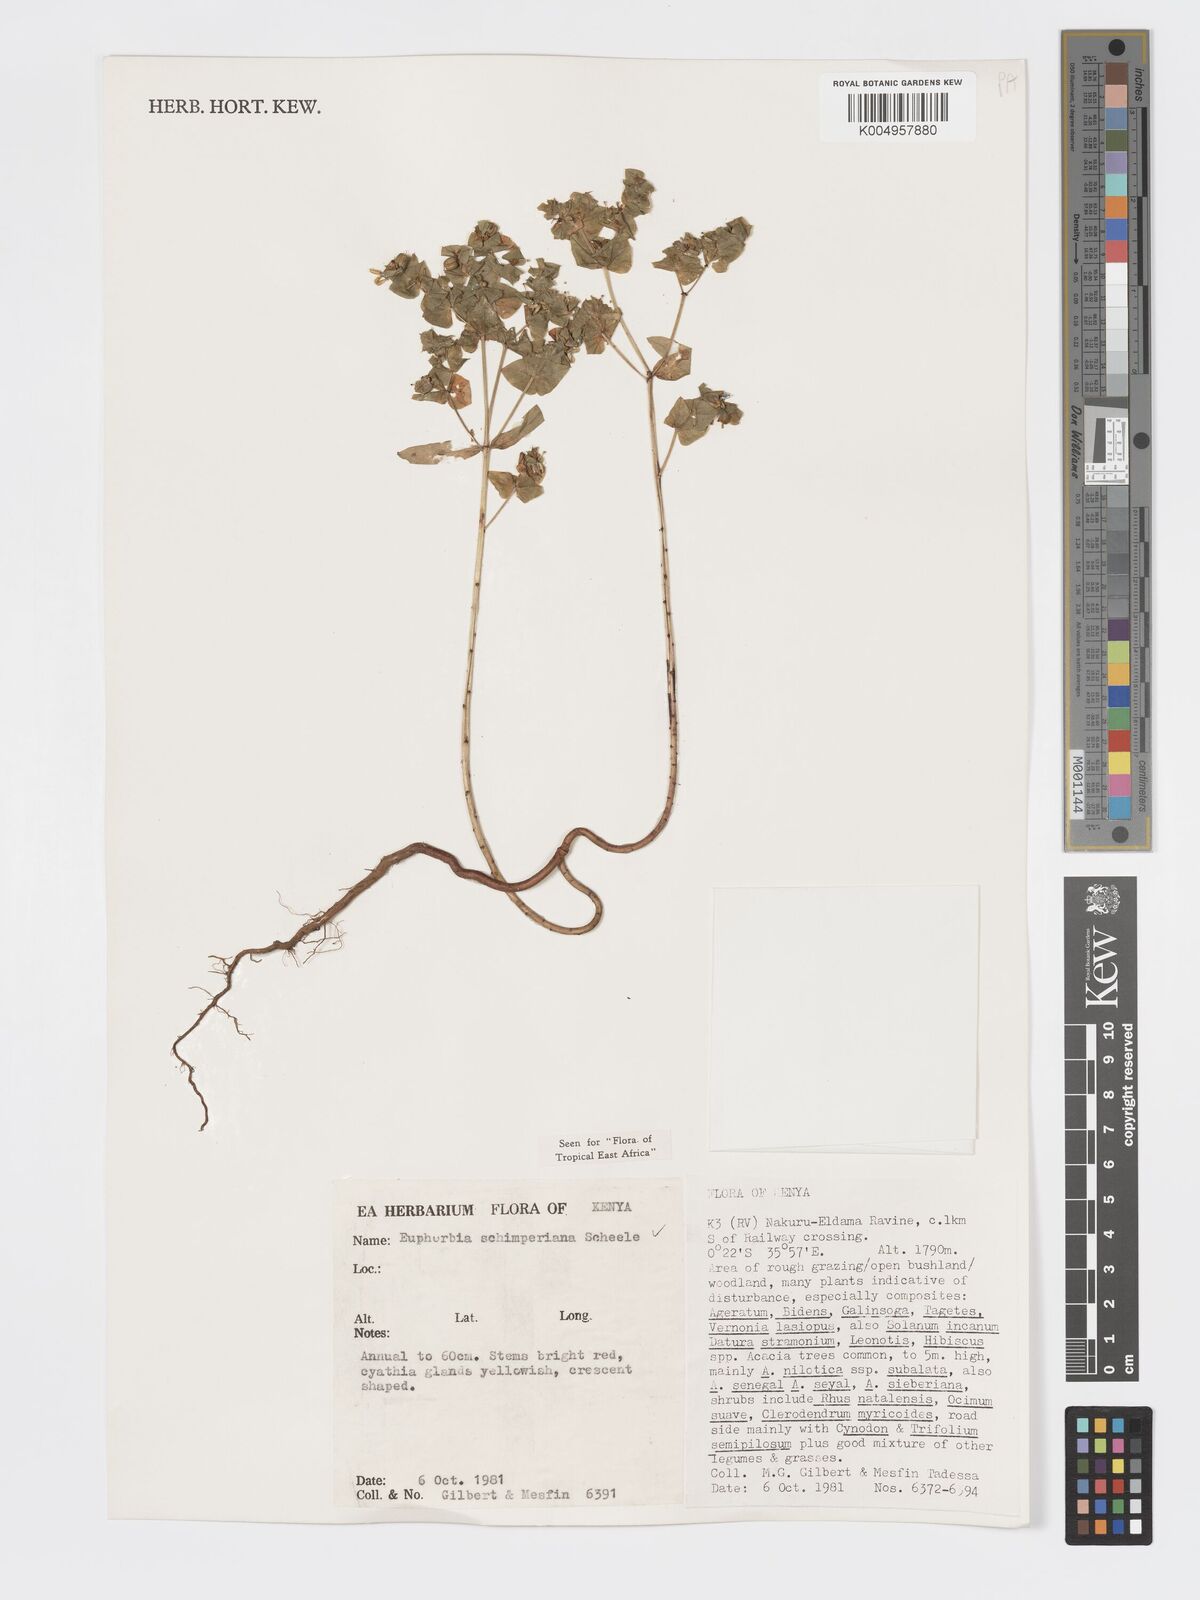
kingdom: Plantae
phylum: Tracheophyta
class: Magnoliopsida
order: Malpighiales
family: Euphorbiaceae
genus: Euphorbia
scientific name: Euphorbia schimperiana
